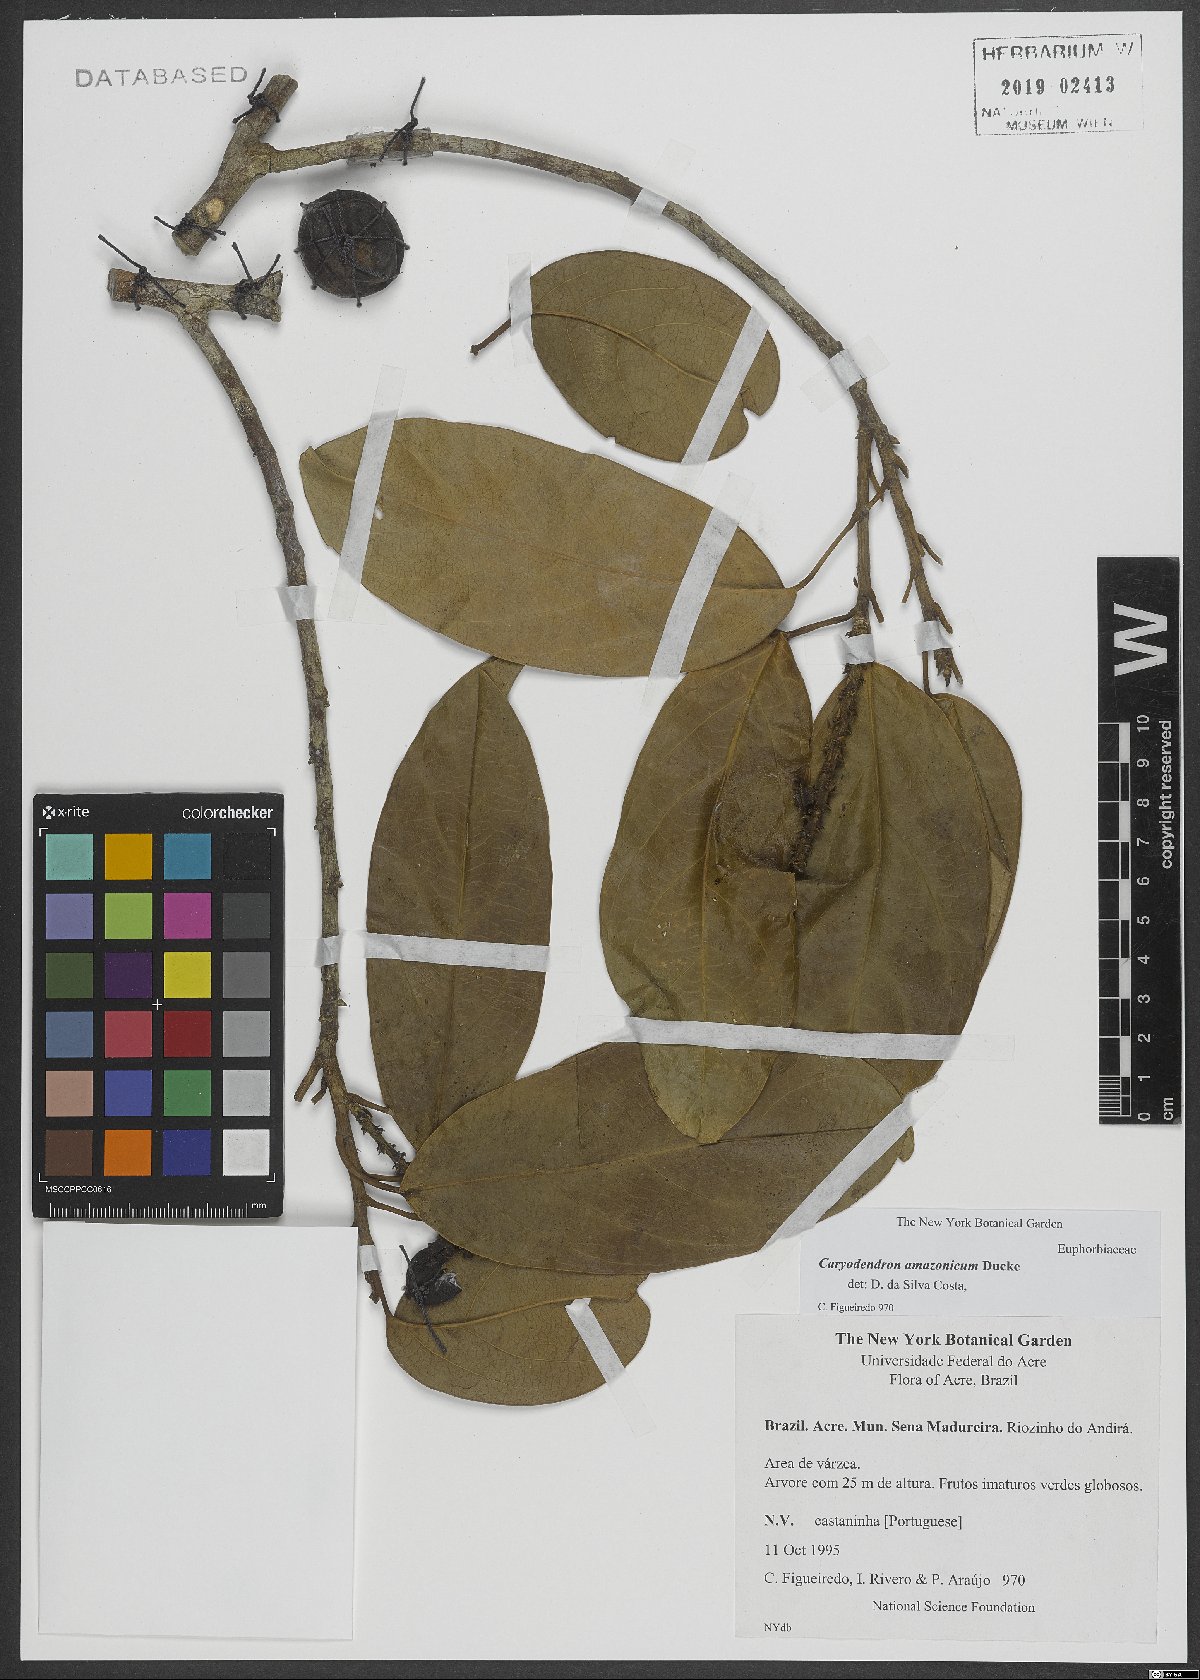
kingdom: Plantae
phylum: Tracheophyta
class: Magnoliopsida
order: Malpighiales
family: Euphorbiaceae
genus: Caryodendron
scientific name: Caryodendron amazonicum
